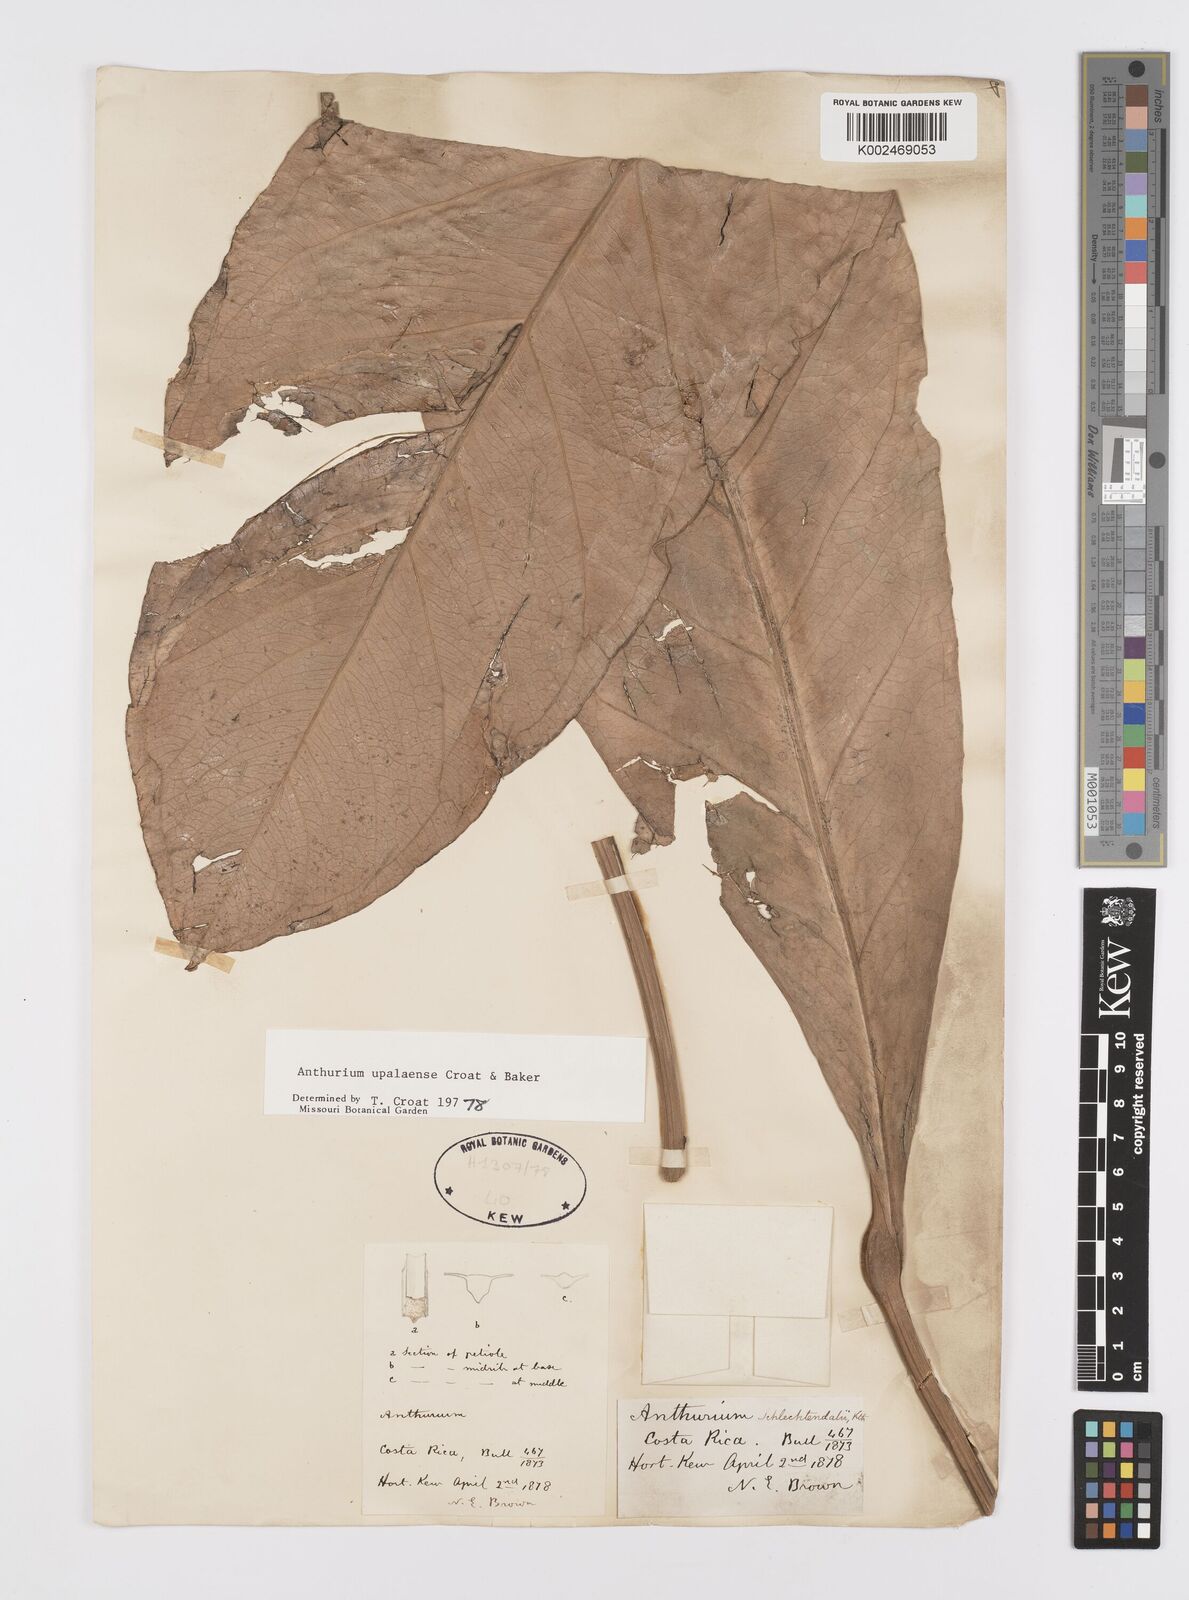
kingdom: Plantae
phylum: Tracheophyta
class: Liliopsida
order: Alismatales
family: Araceae
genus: Anthurium
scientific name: Anthurium upalaense
